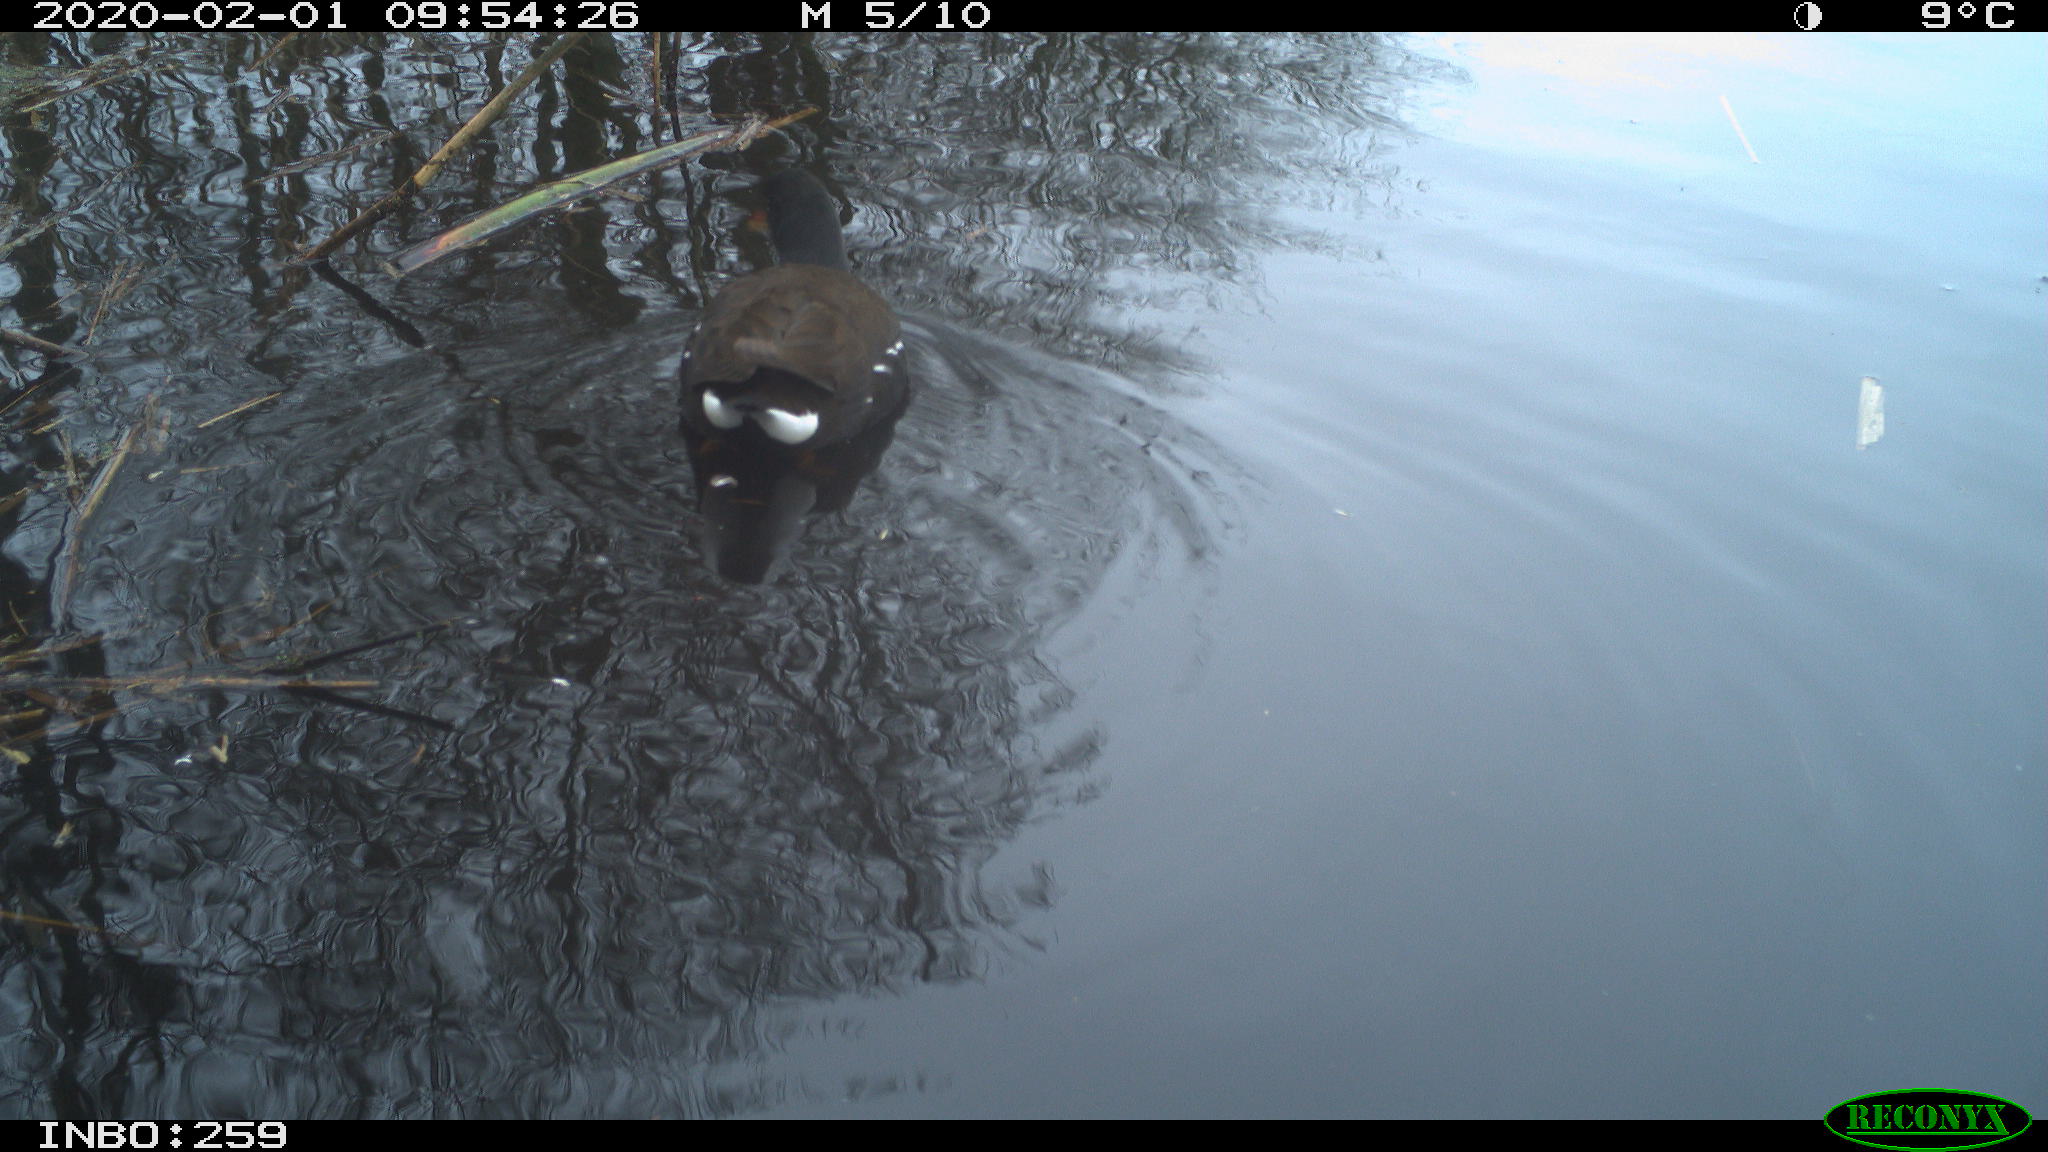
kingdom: Animalia
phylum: Chordata
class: Aves
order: Gruiformes
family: Rallidae
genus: Gallinula
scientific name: Gallinula chloropus
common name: Common moorhen
